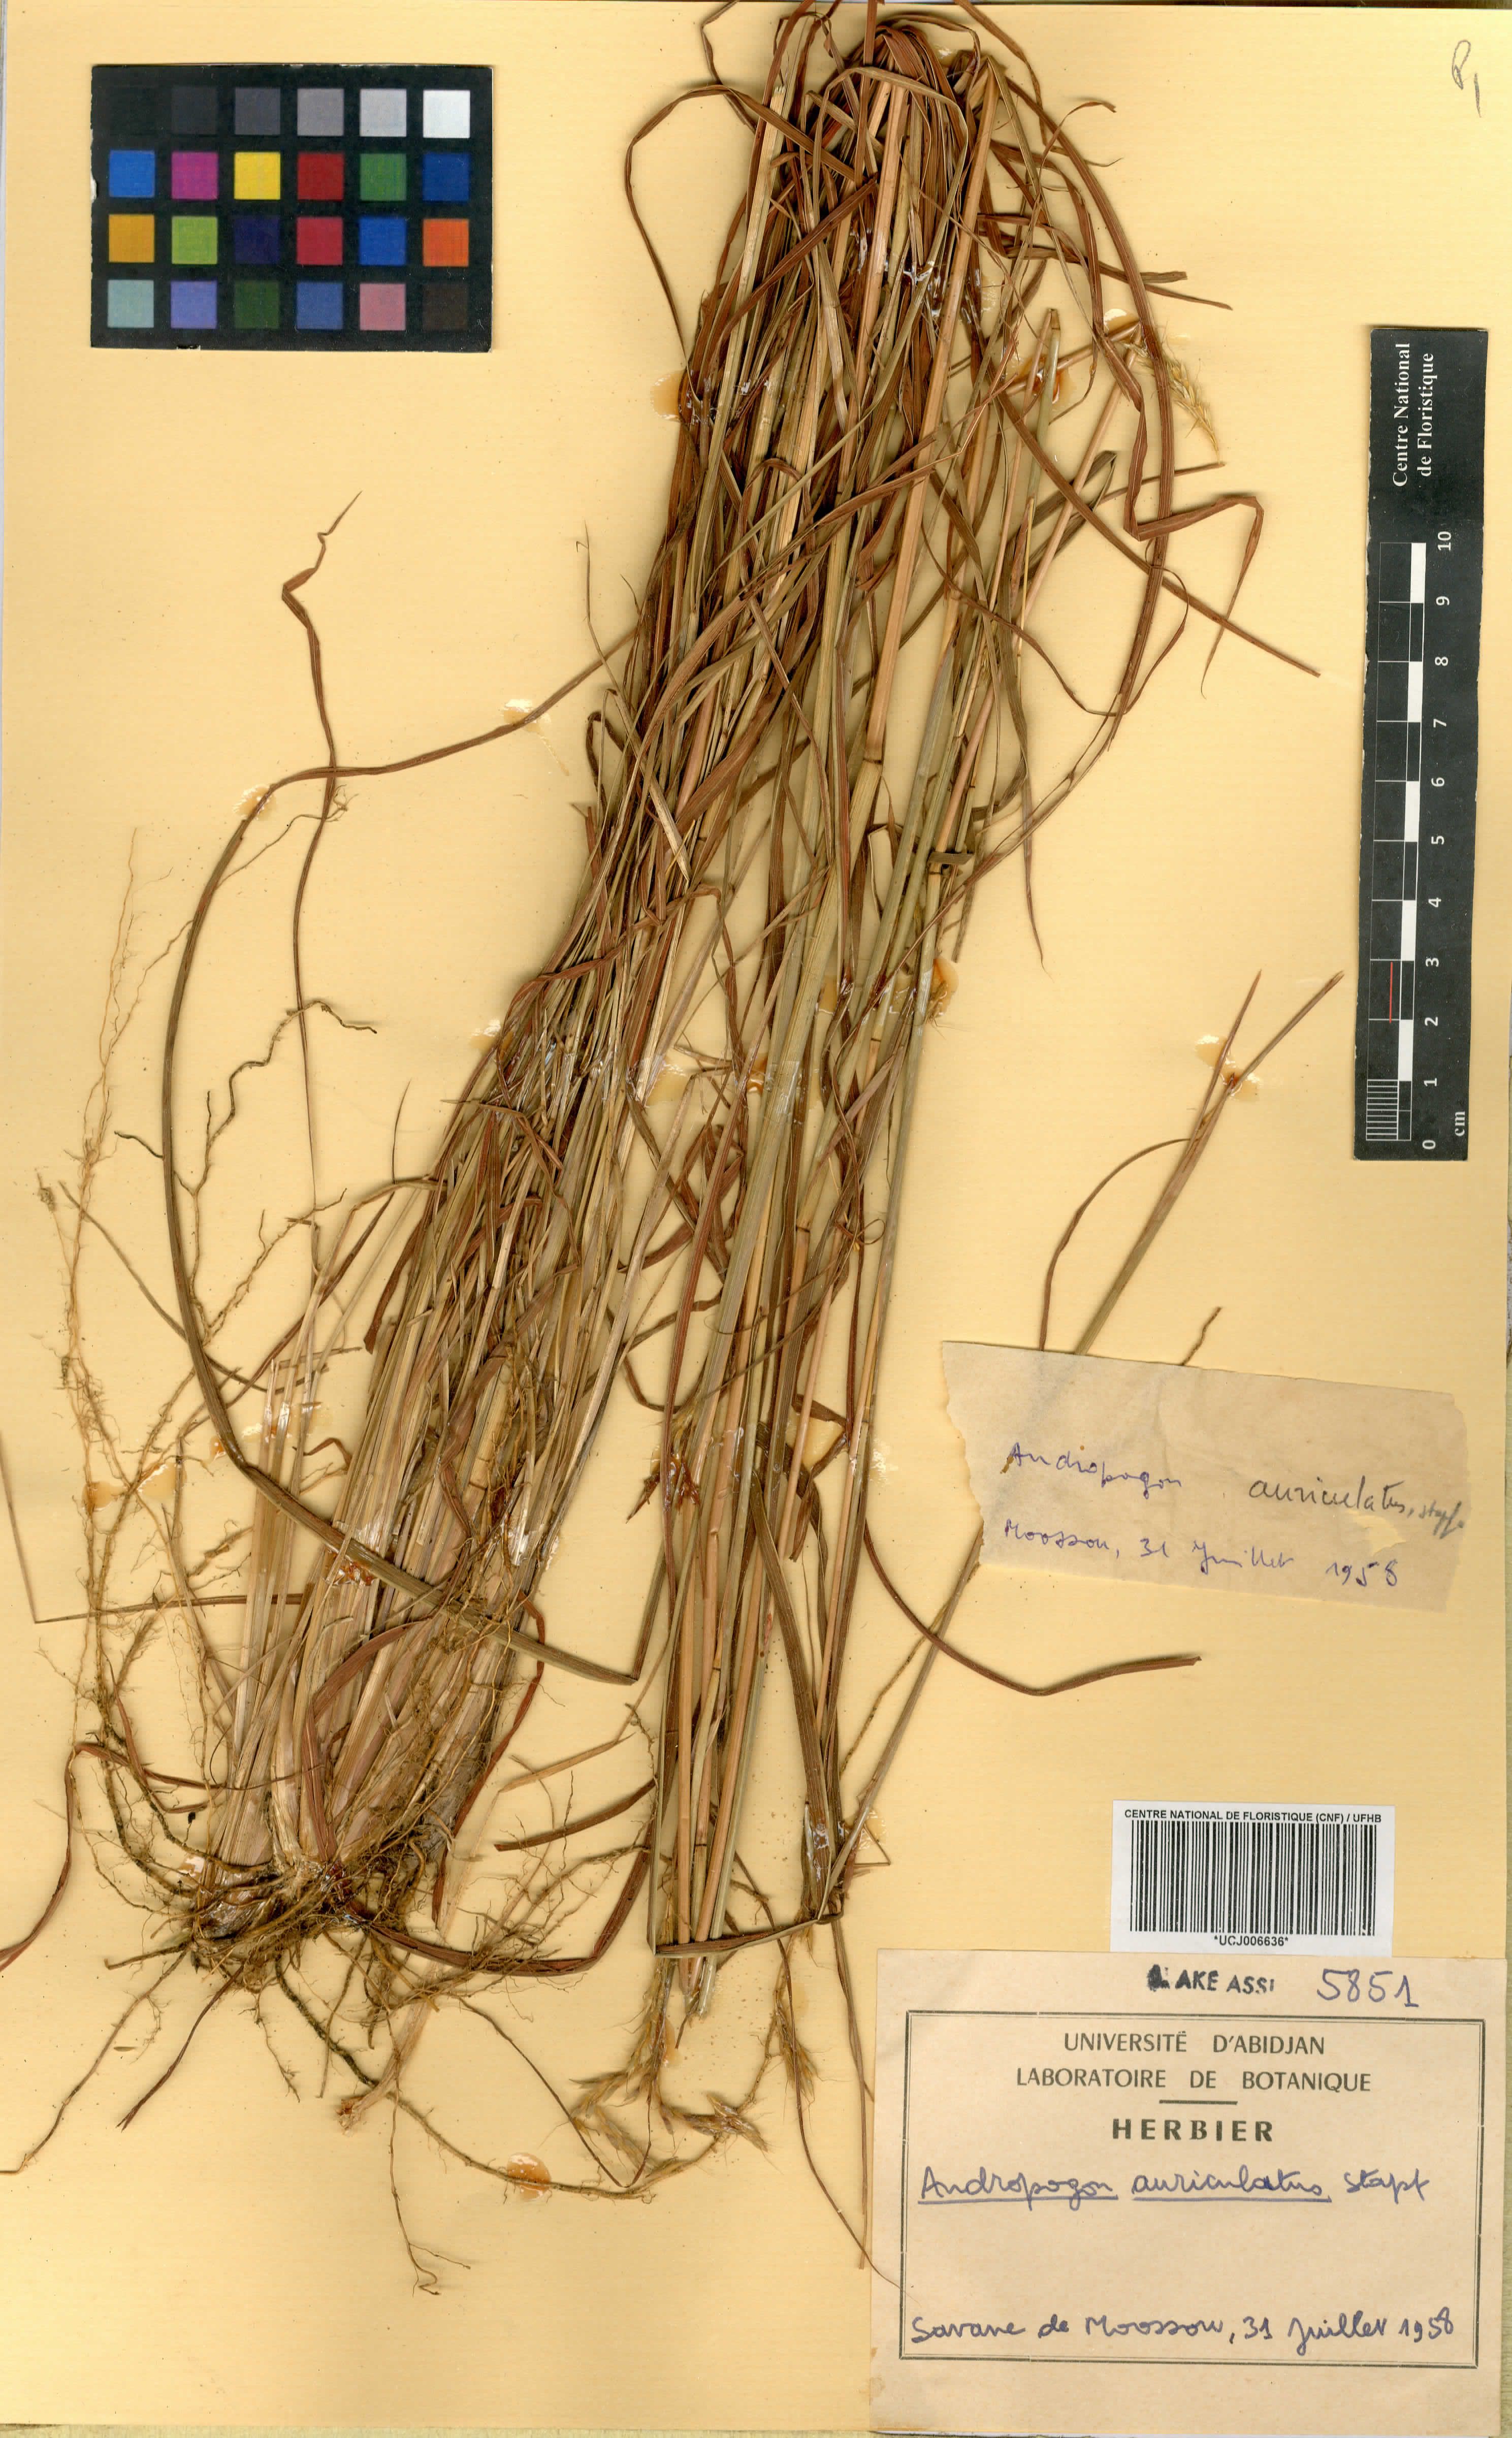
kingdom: Plantae
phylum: Tracheophyta
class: Liliopsida
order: Poales
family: Poaceae
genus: Andropogon
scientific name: Andropogon auriculatus
